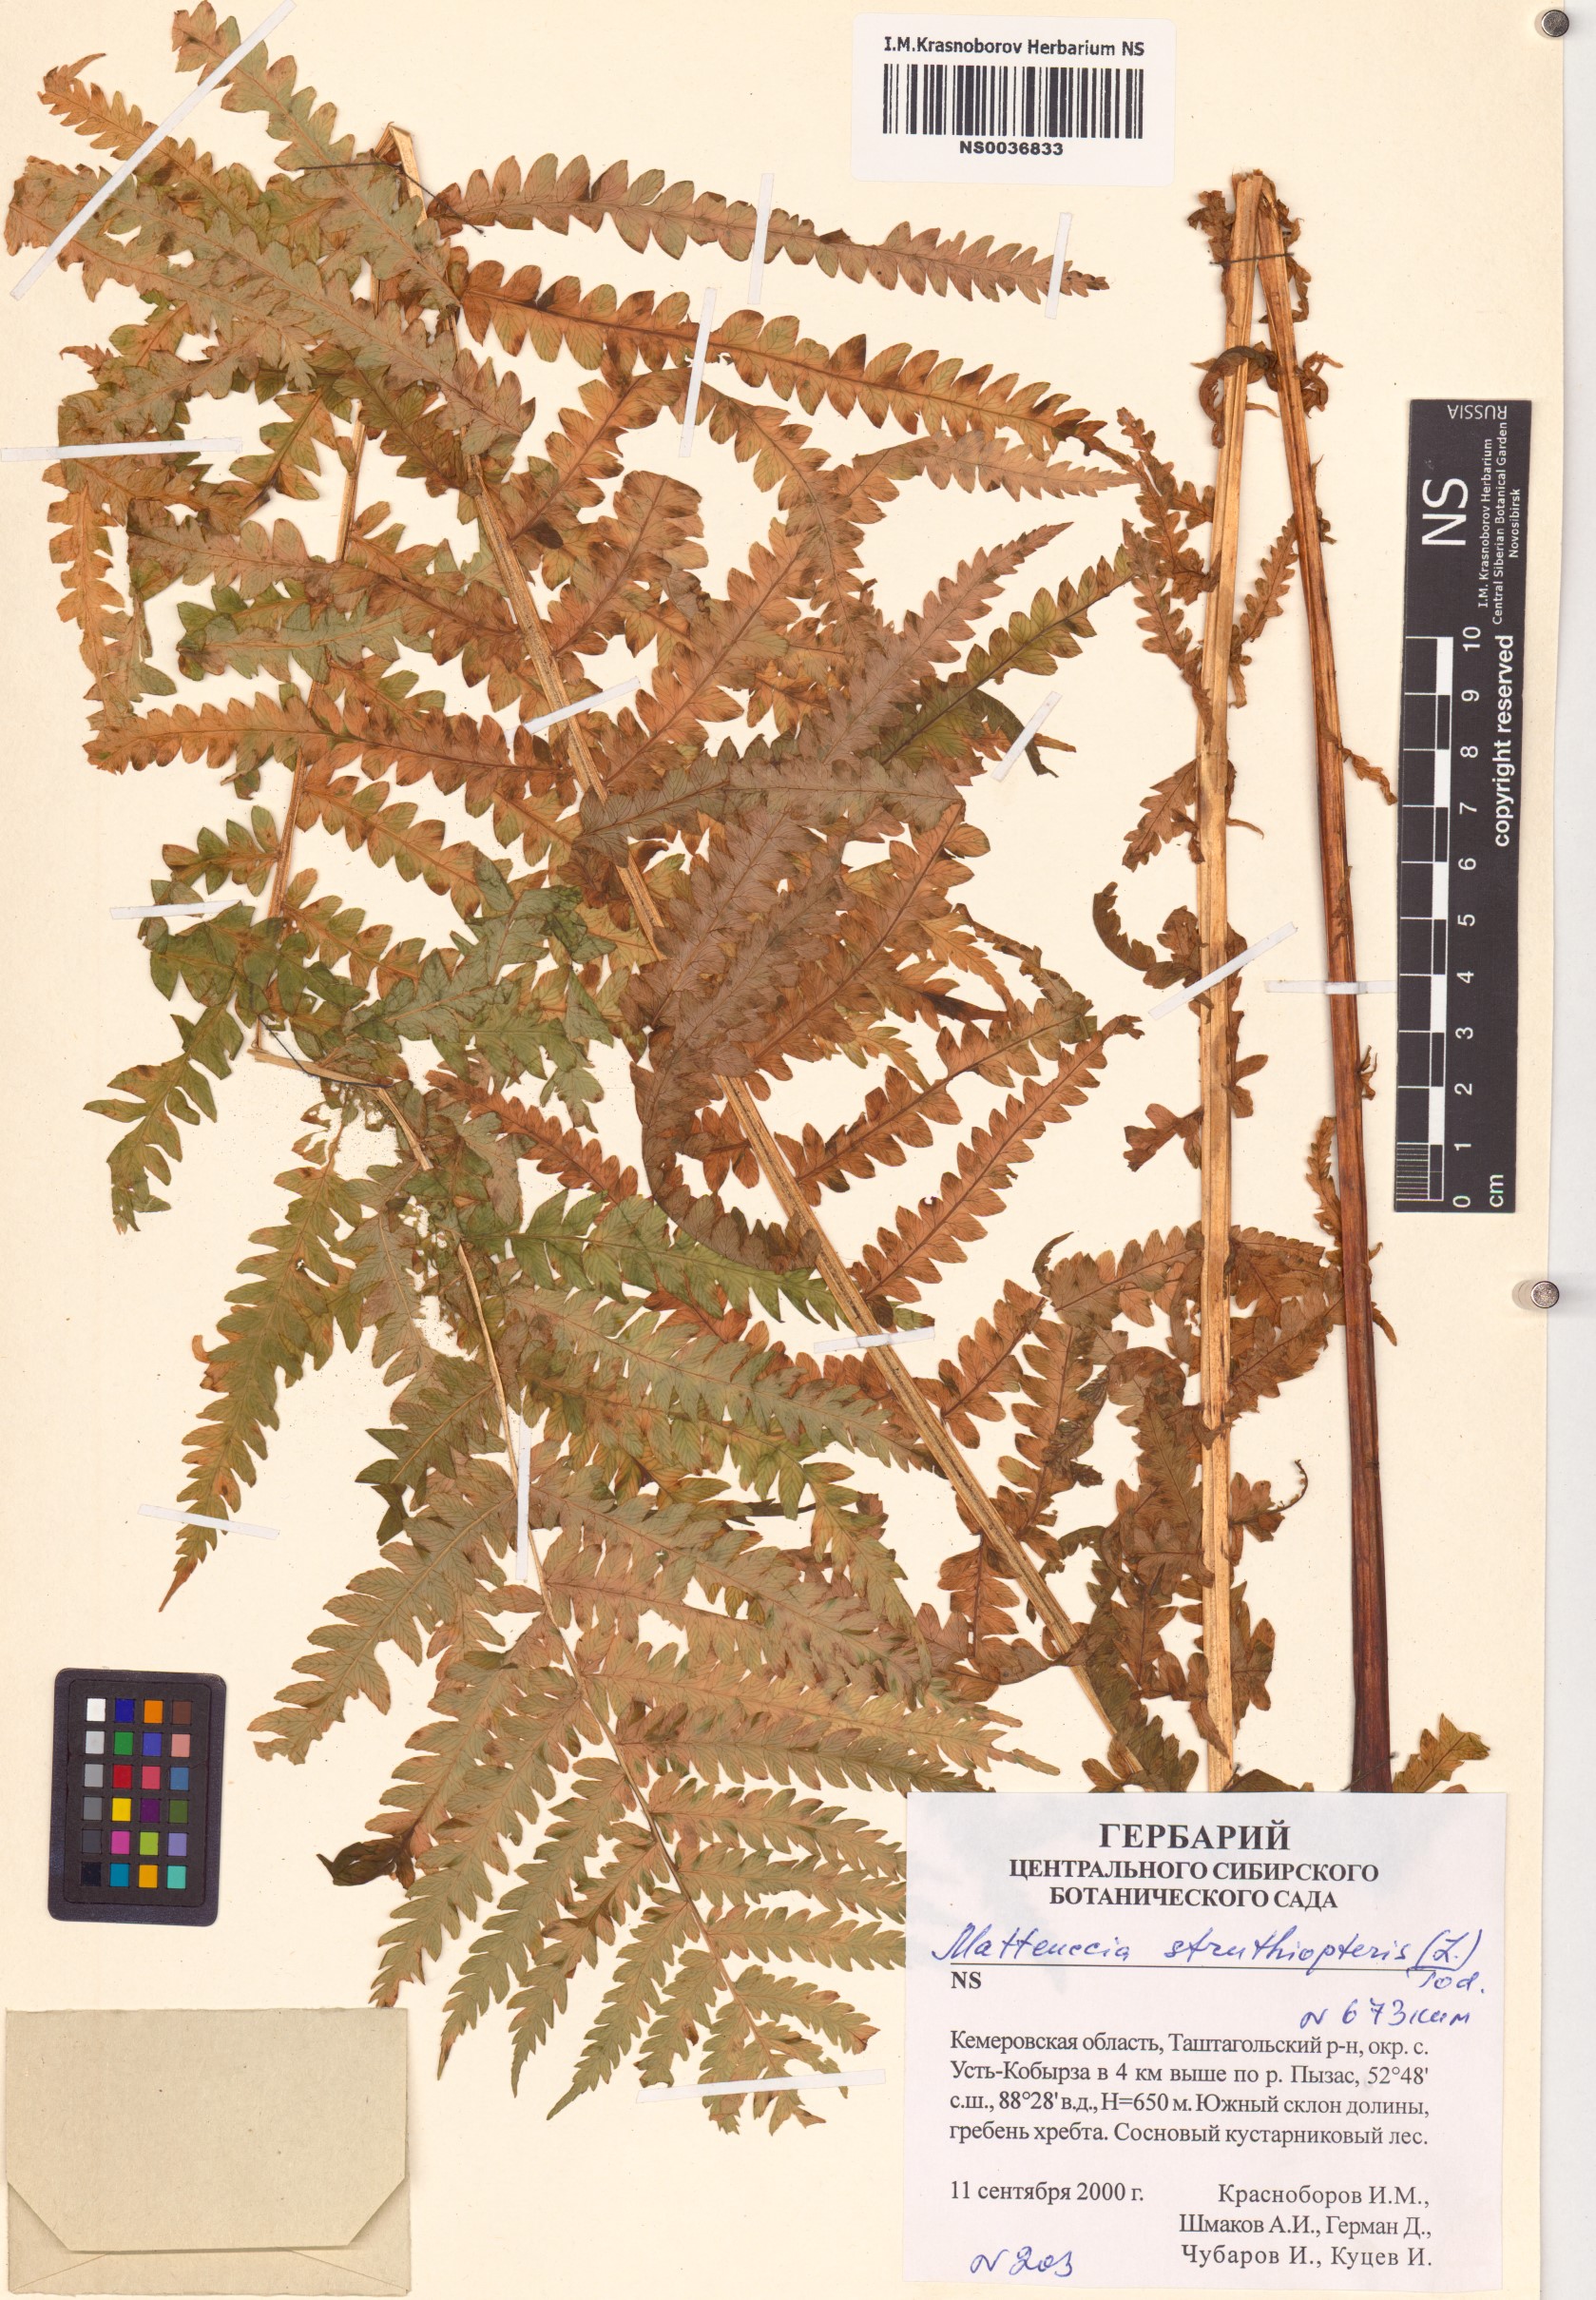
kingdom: Plantae
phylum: Tracheophyta
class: Polypodiopsida
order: Polypodiales
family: Onocleaceae
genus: Matteuccia
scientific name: Matteuccia struthiopteris
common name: Ostrich fern
